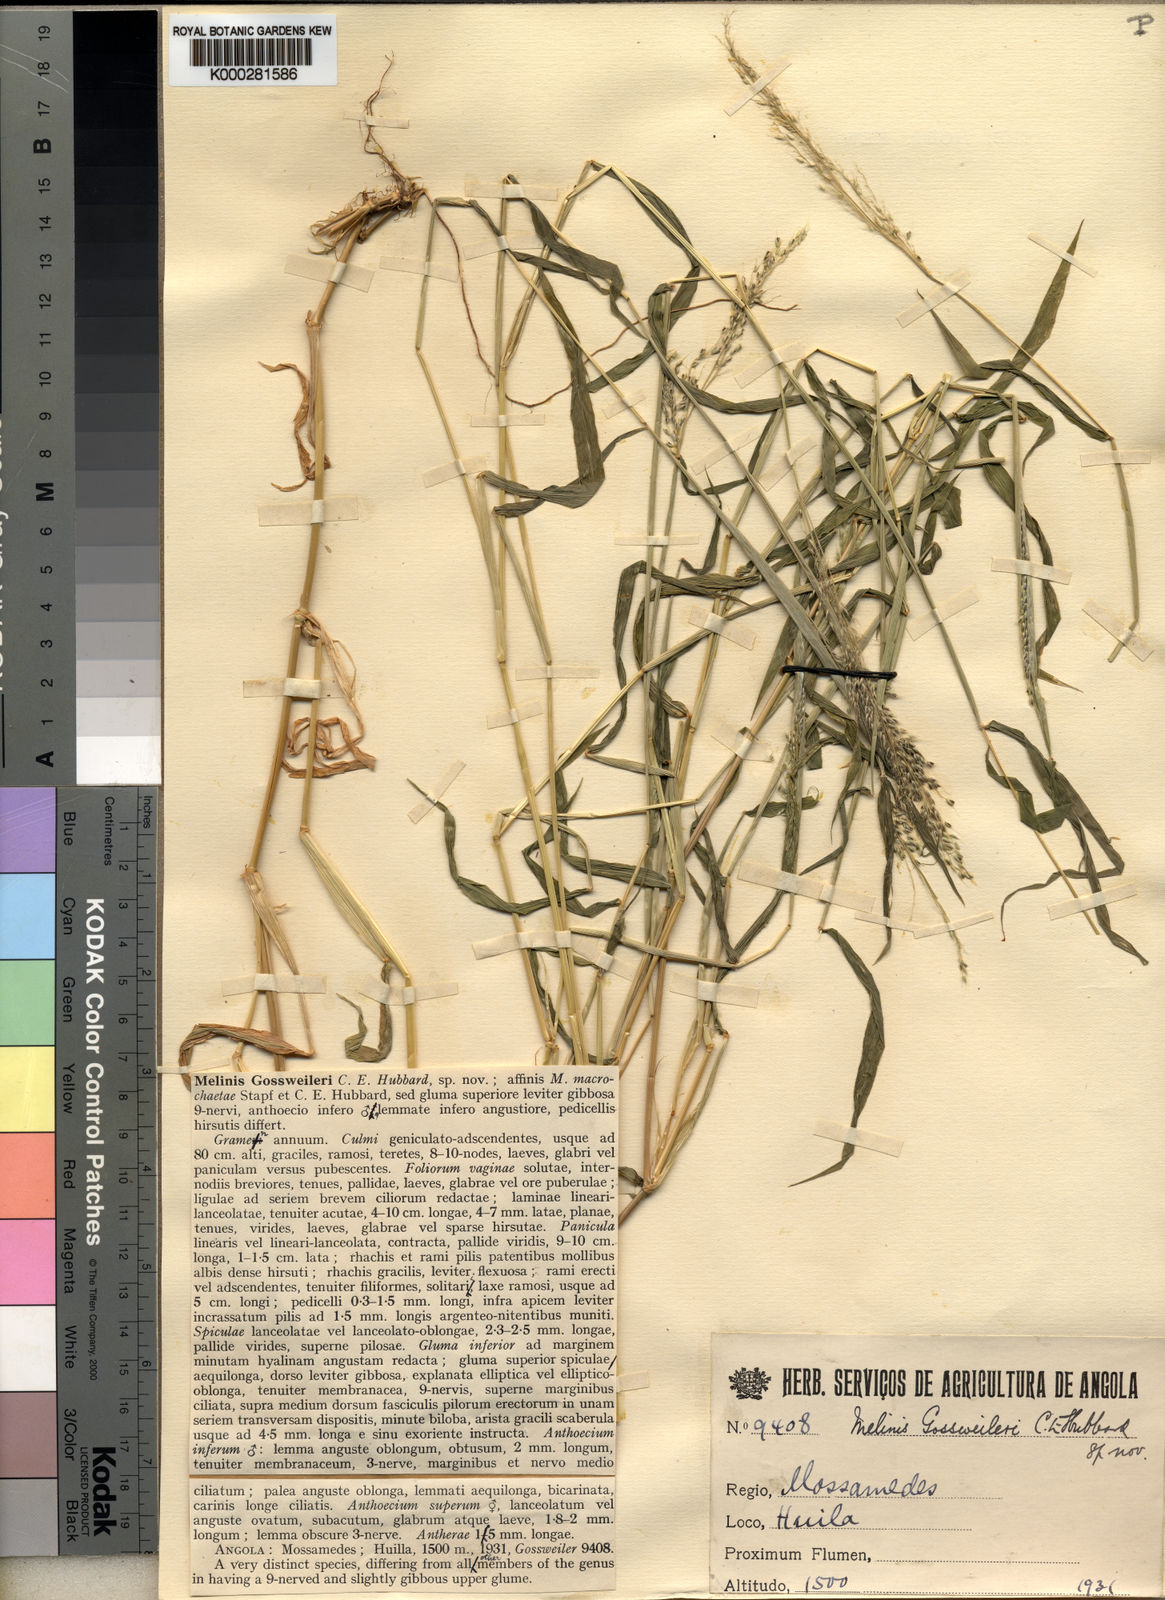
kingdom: Plantae
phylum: Tracheophyta
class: Liliopsida
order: Poales
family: Poaceae
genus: Melinis
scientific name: Melinis gossweileri
